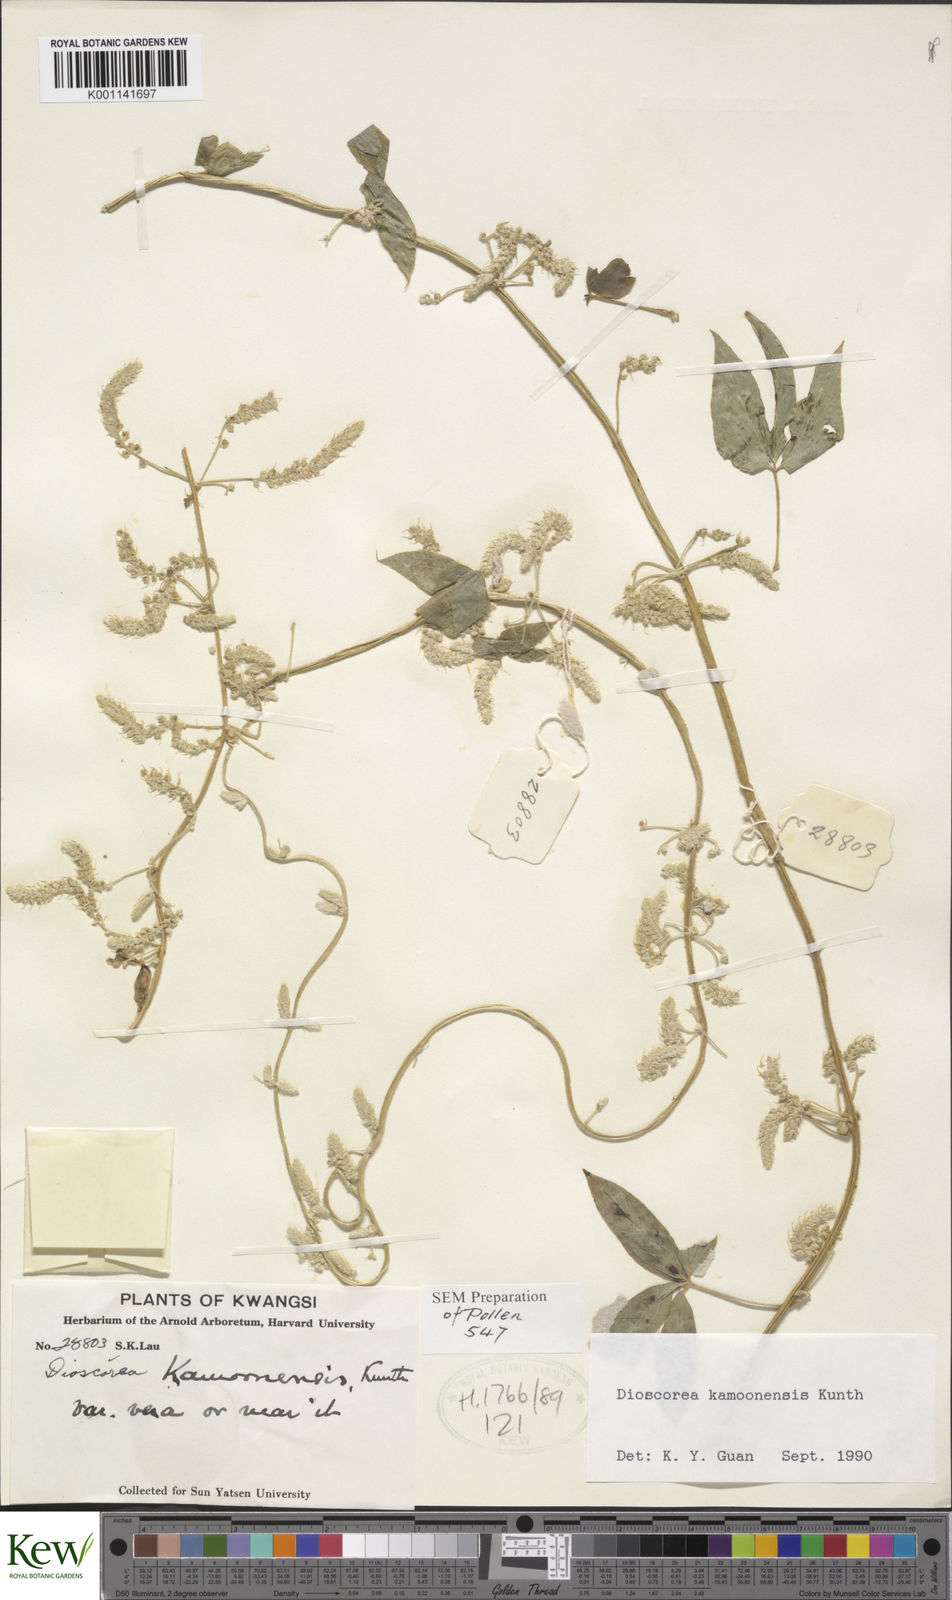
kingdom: Plantae
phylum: Tracheophyta
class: Liliopsida
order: Dioscoreales
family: Dioscoreaceae
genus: Dioscorea
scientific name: Dioscorea kamoonensis
